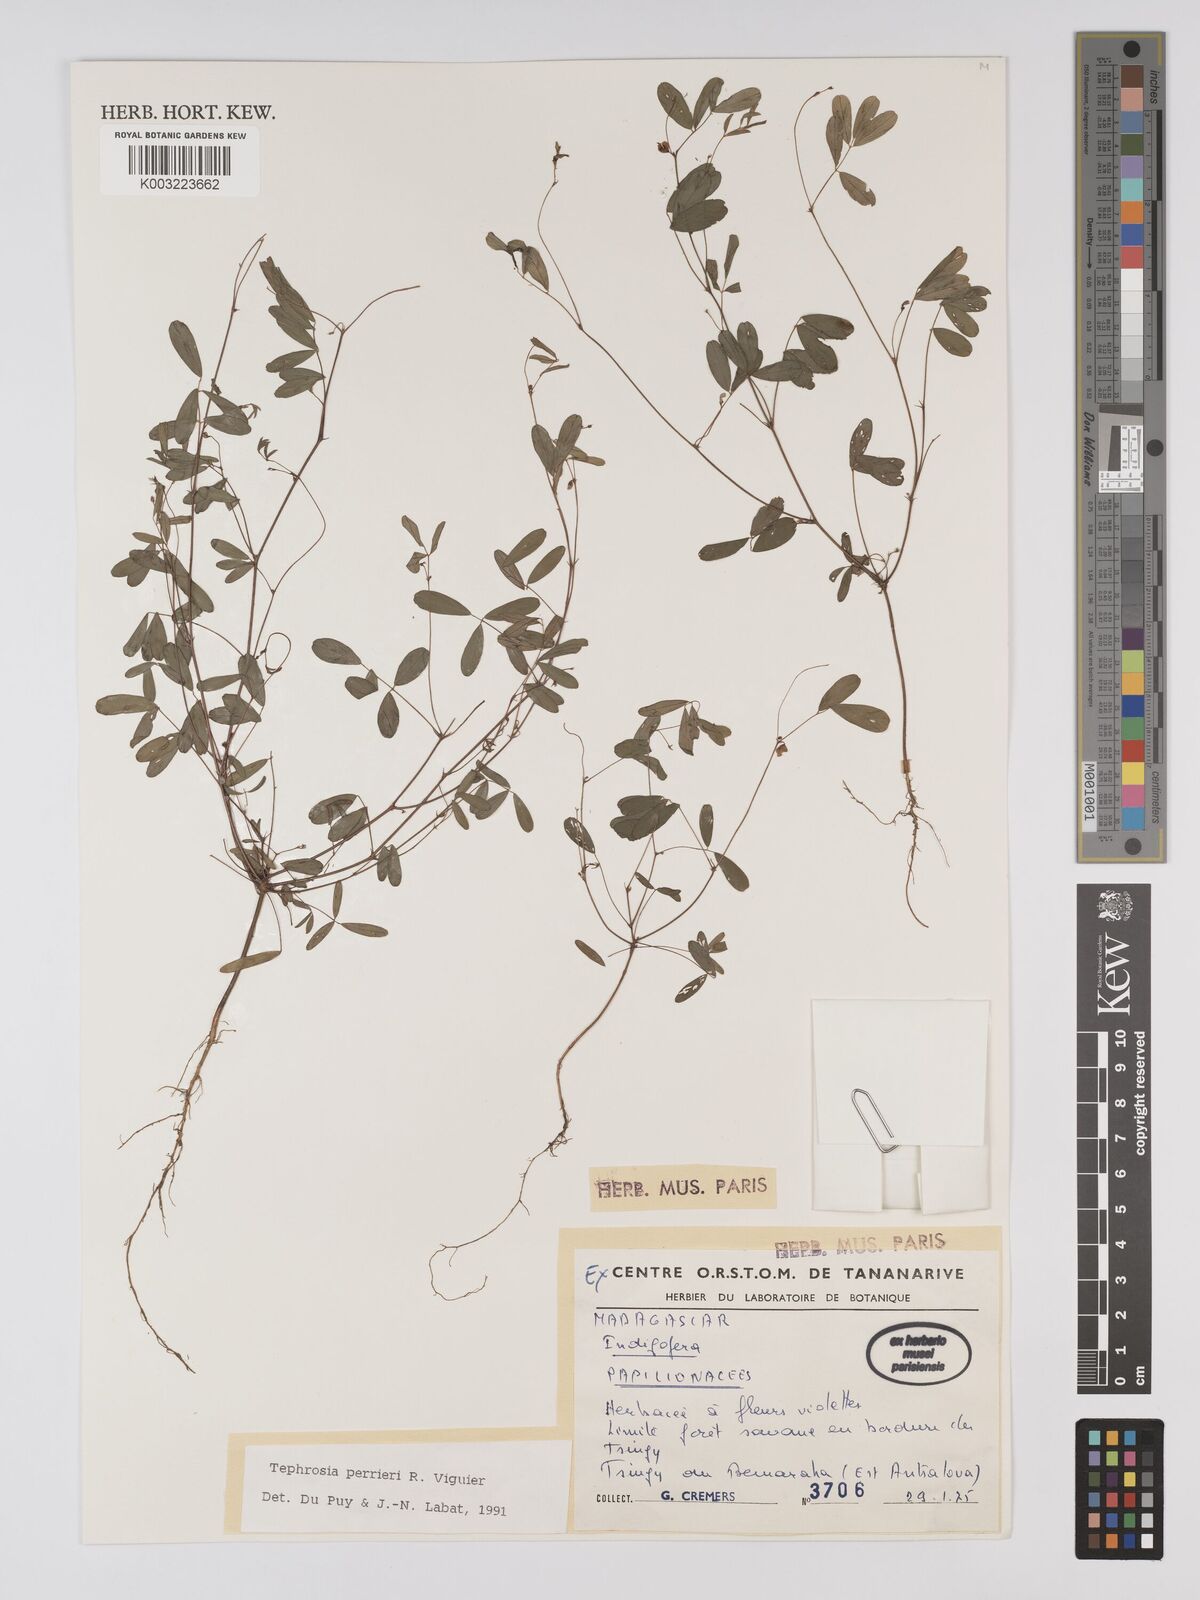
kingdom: Plantae
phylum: Tracheophyta
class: Magnoliopsida
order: Fabales
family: Fabaceae
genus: Tephrosia
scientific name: Tephrosia perrieri
